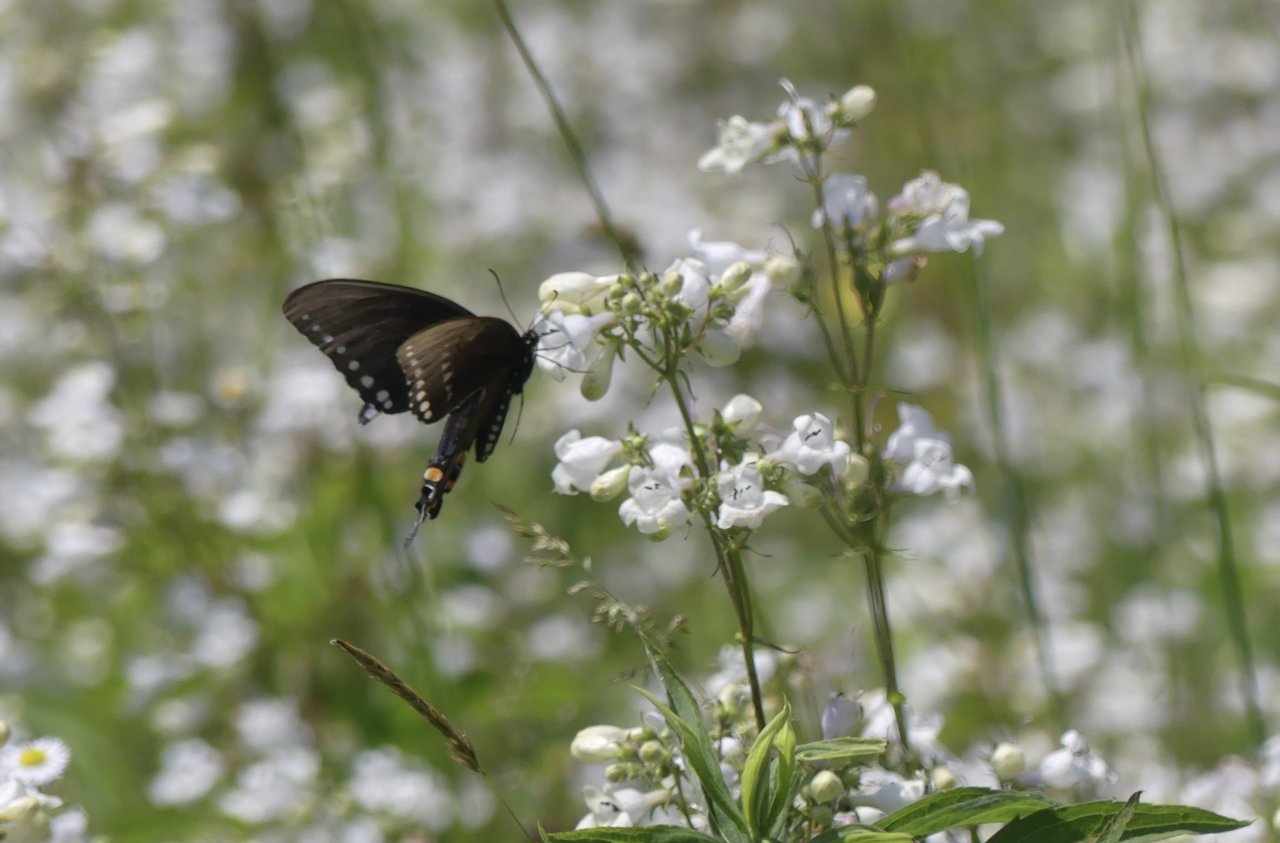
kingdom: Animalia
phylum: Arthropoda
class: Insecta
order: Lepidoptera
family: Papilionidae
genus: Pterourus
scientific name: Pterourus troilus
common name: Spicebush Swallowtail
